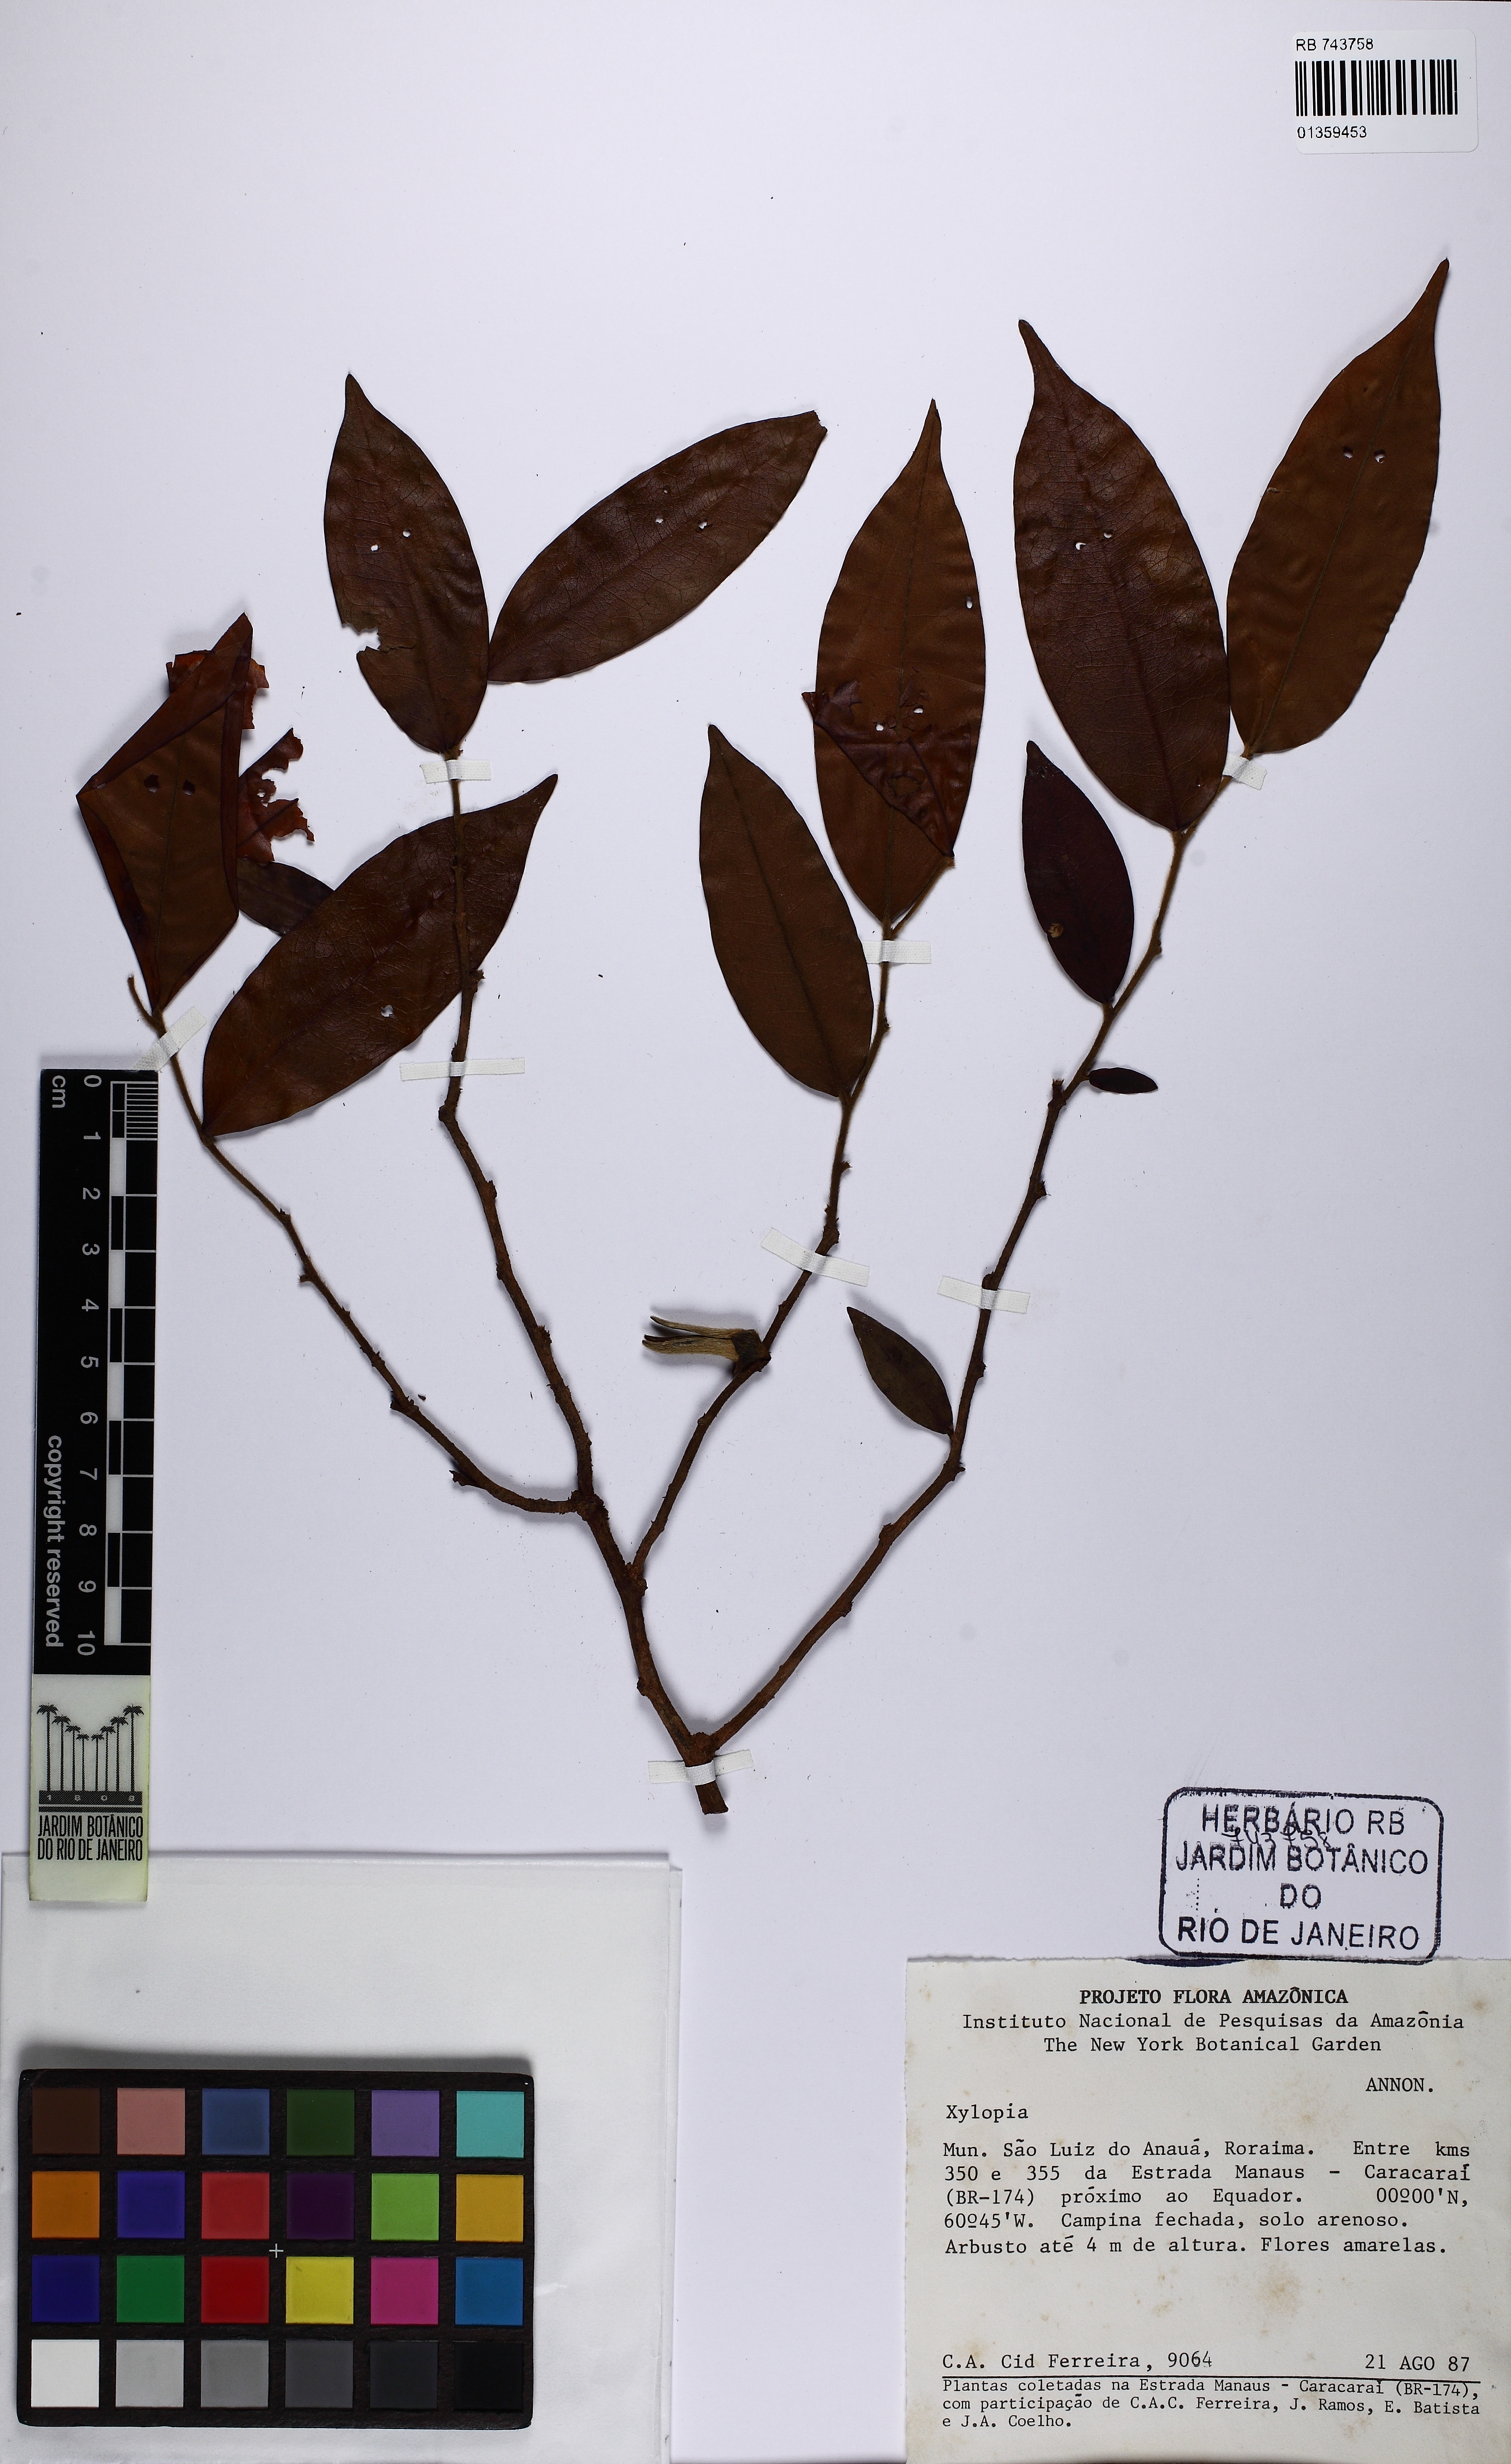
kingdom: Plantae
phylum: Tracheophyta
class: Magnoliopsida
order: Magnoliales
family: Annonaceae
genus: Xylopia
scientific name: Xylopia
